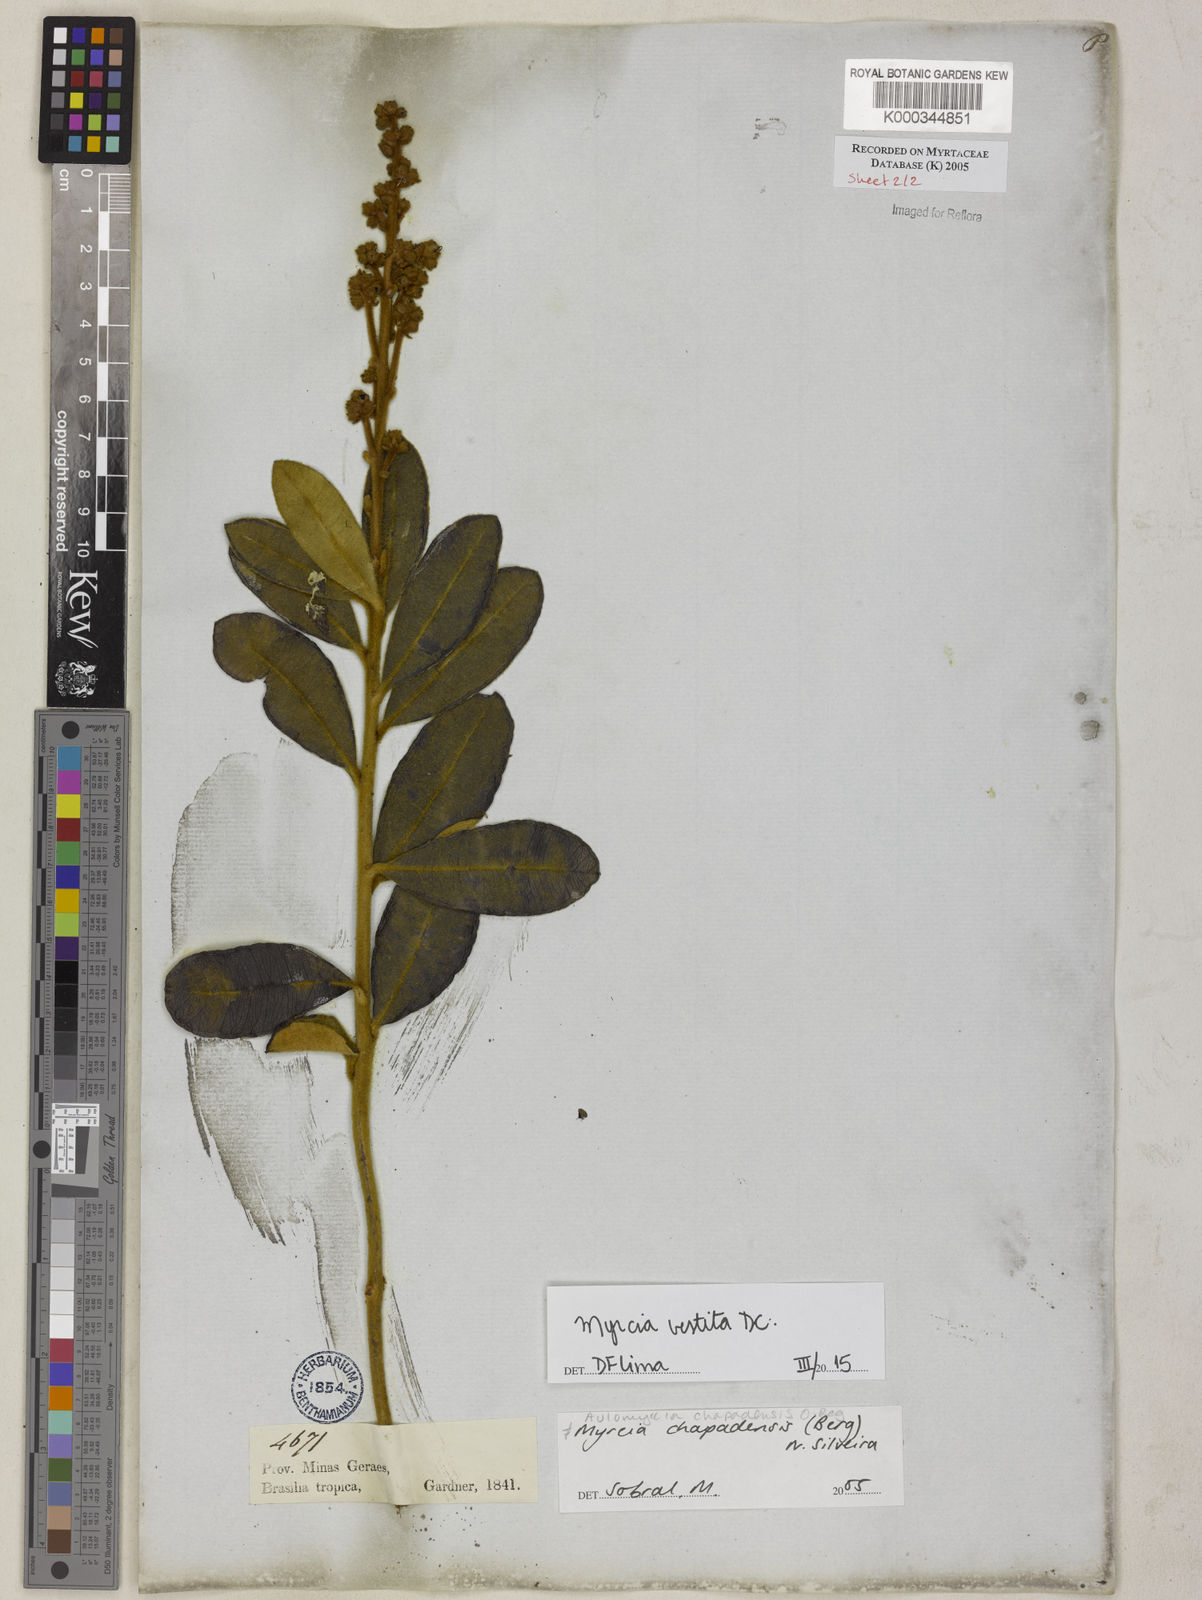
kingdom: Plantae
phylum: Tracheophyta
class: Magnoliopsida
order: Myrtales
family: Myrtaceae
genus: Myrcia
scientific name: Myrcia chapadensis
